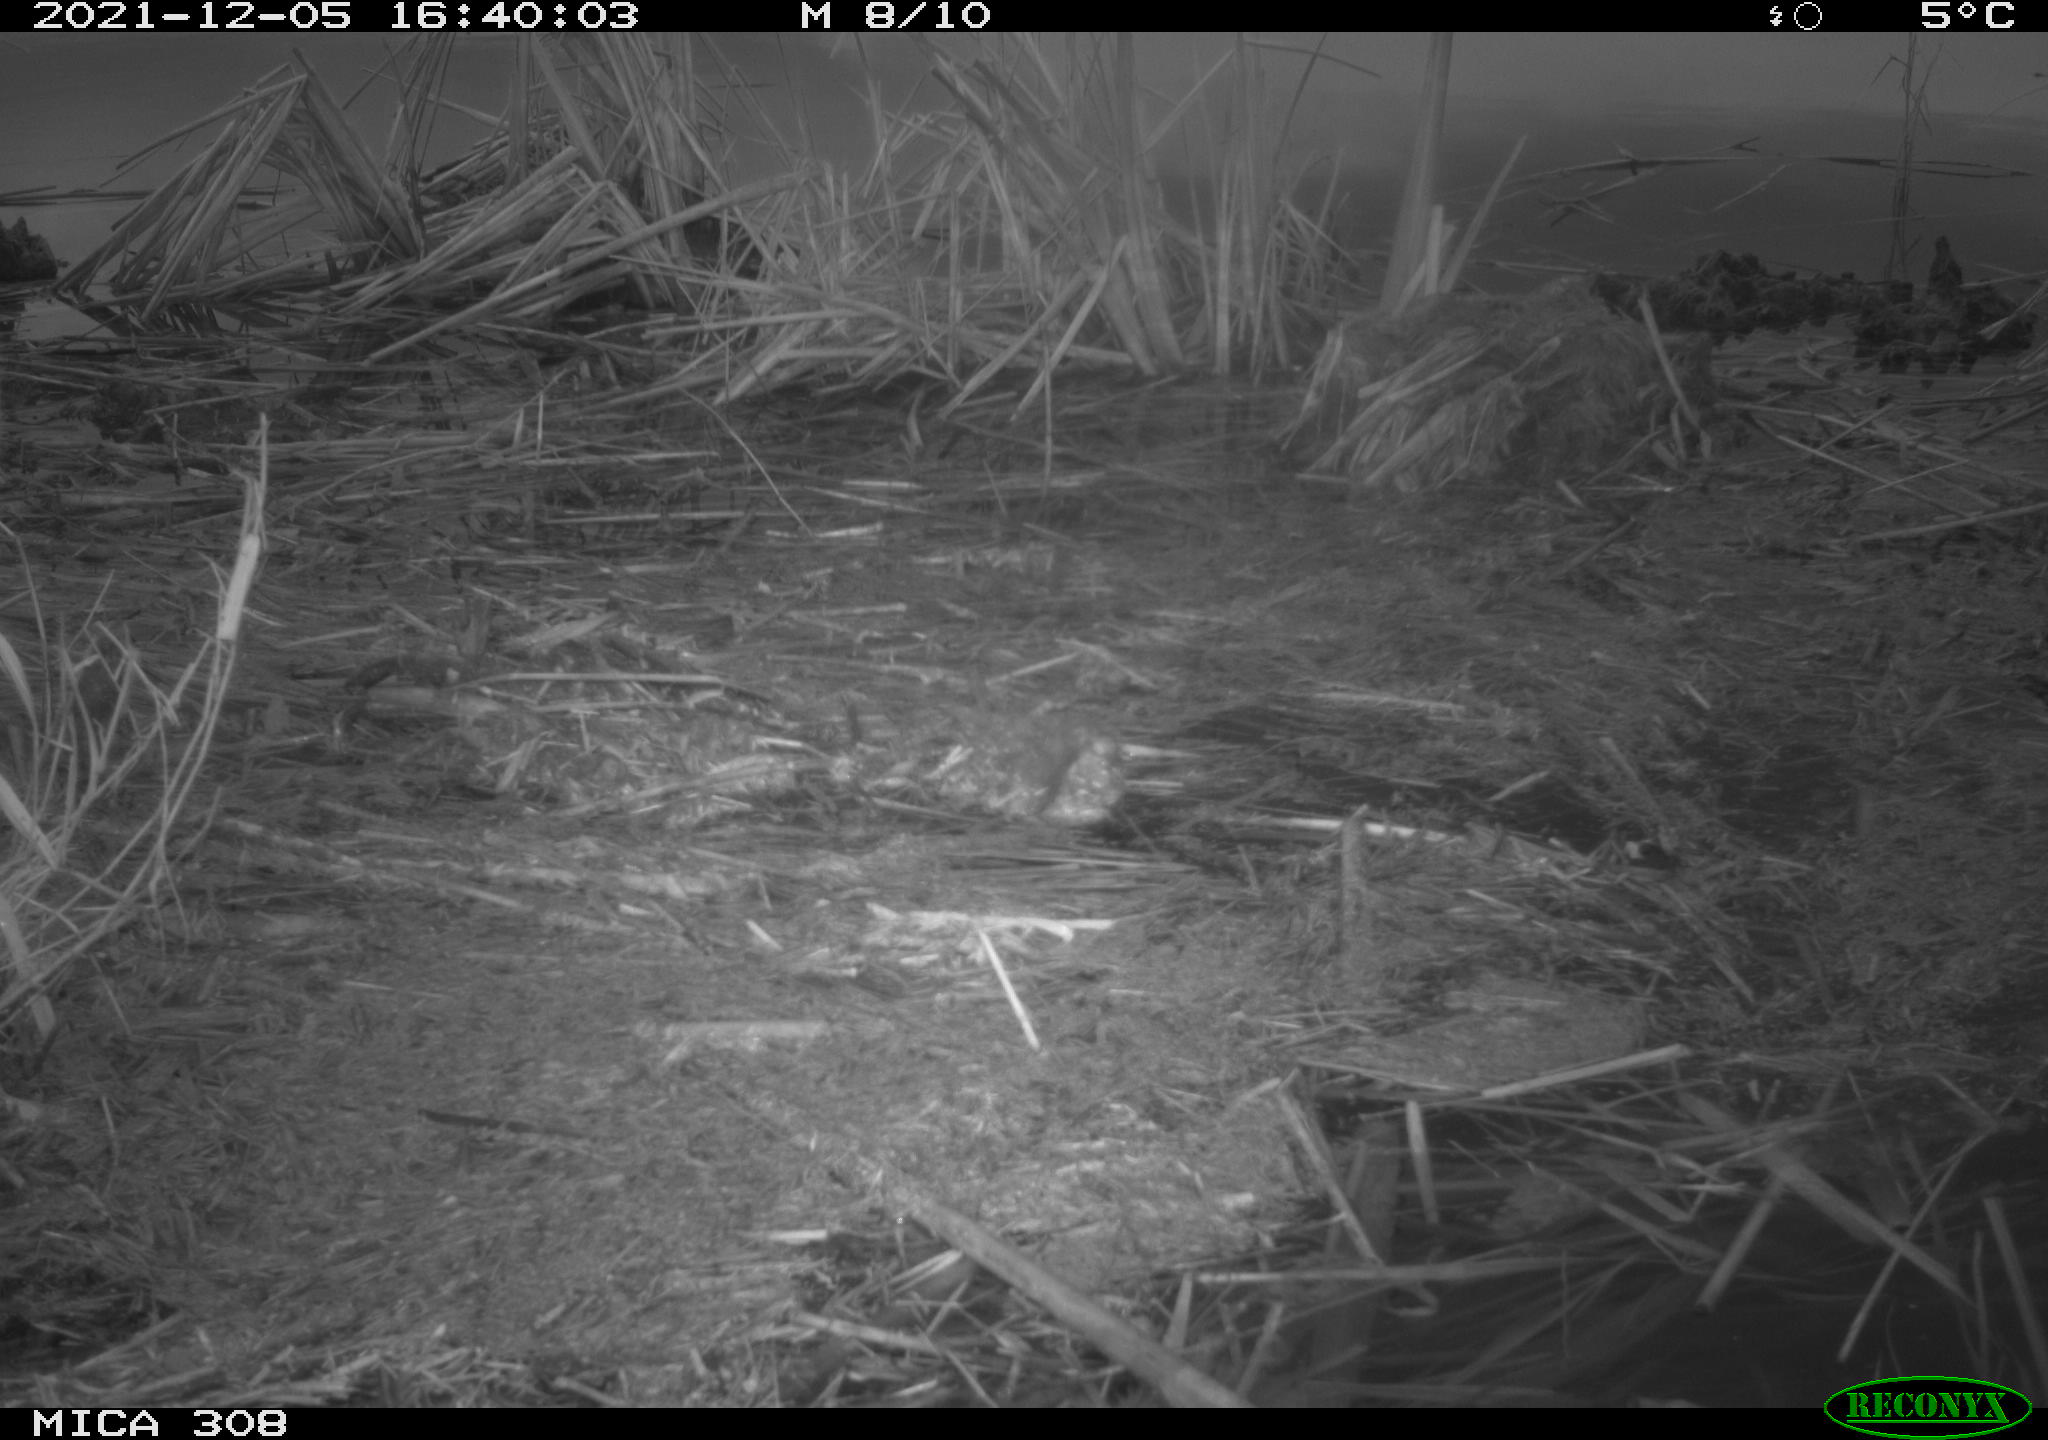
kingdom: Animalia
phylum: Chordata
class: Aves
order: Gruiformes
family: Rallidae
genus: Gallinula
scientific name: Gallinula chloropus
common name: Common moorhen
